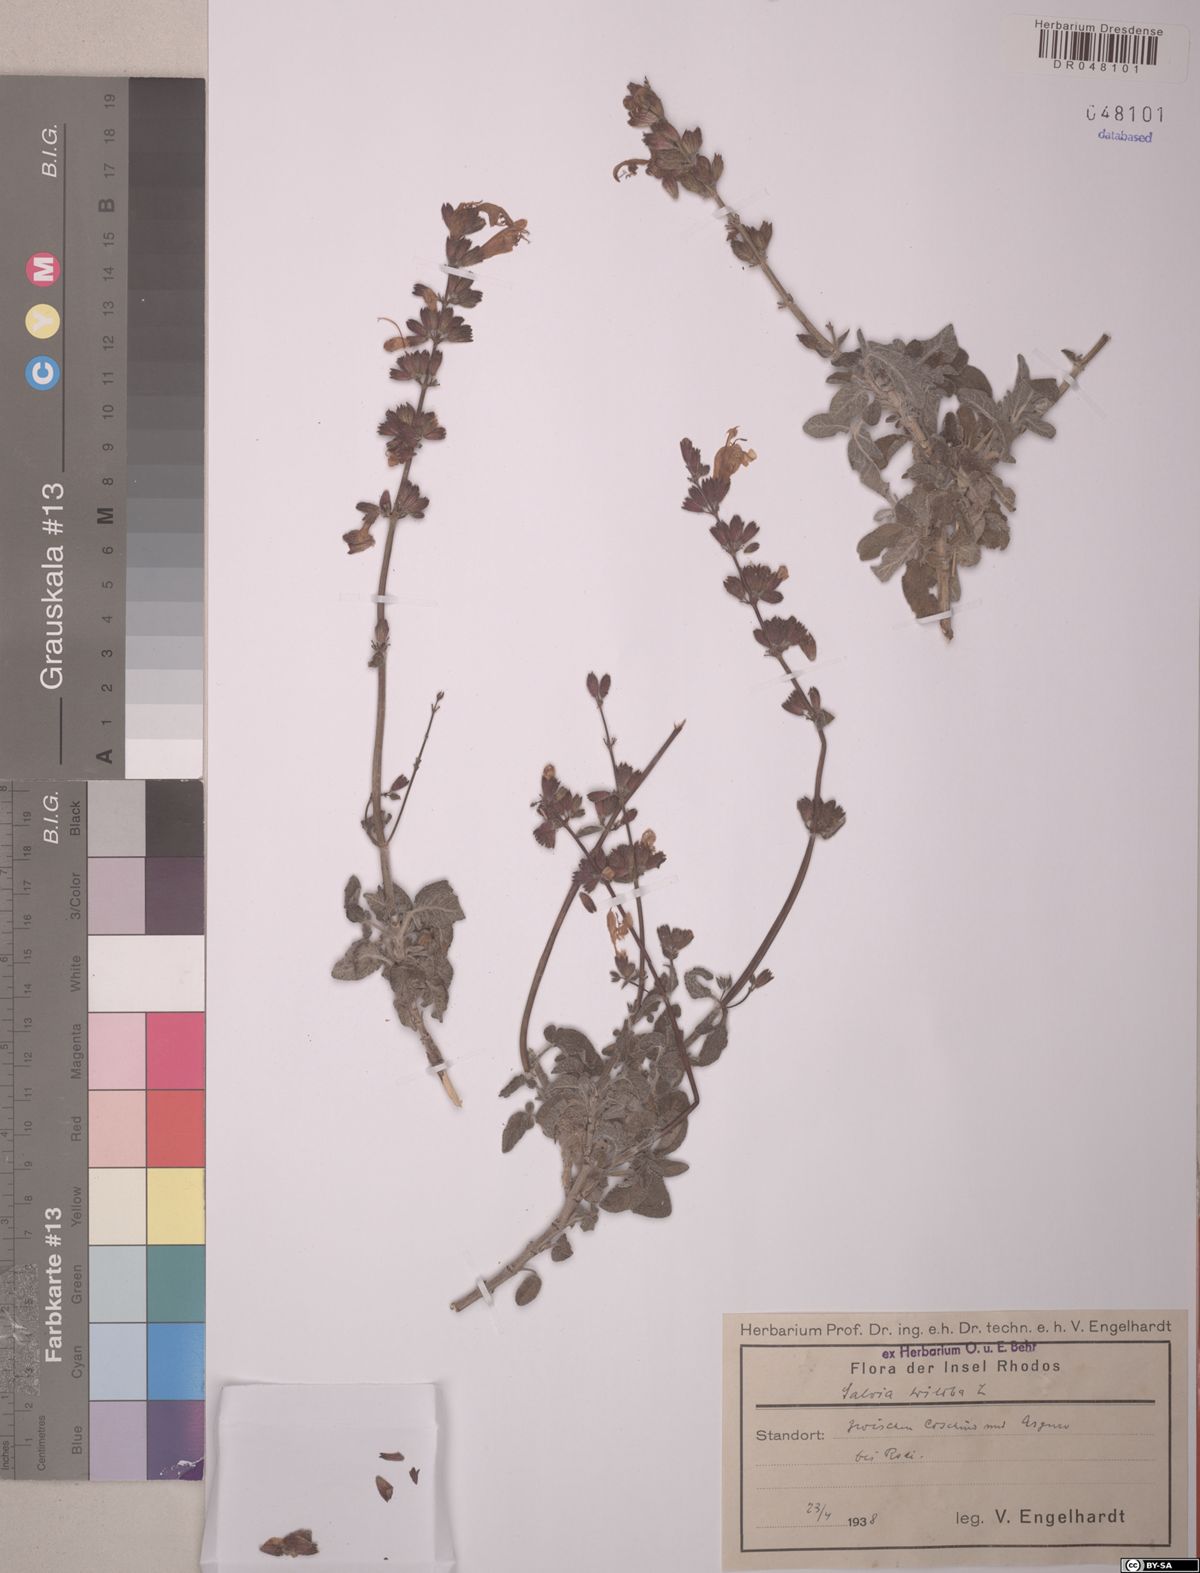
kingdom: Plantae
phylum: Tracheophyta
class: Magnoliopsida
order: Lamiales
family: Lamiaceae
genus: Salvia
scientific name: Salvia fruticosa
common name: Greek sage
